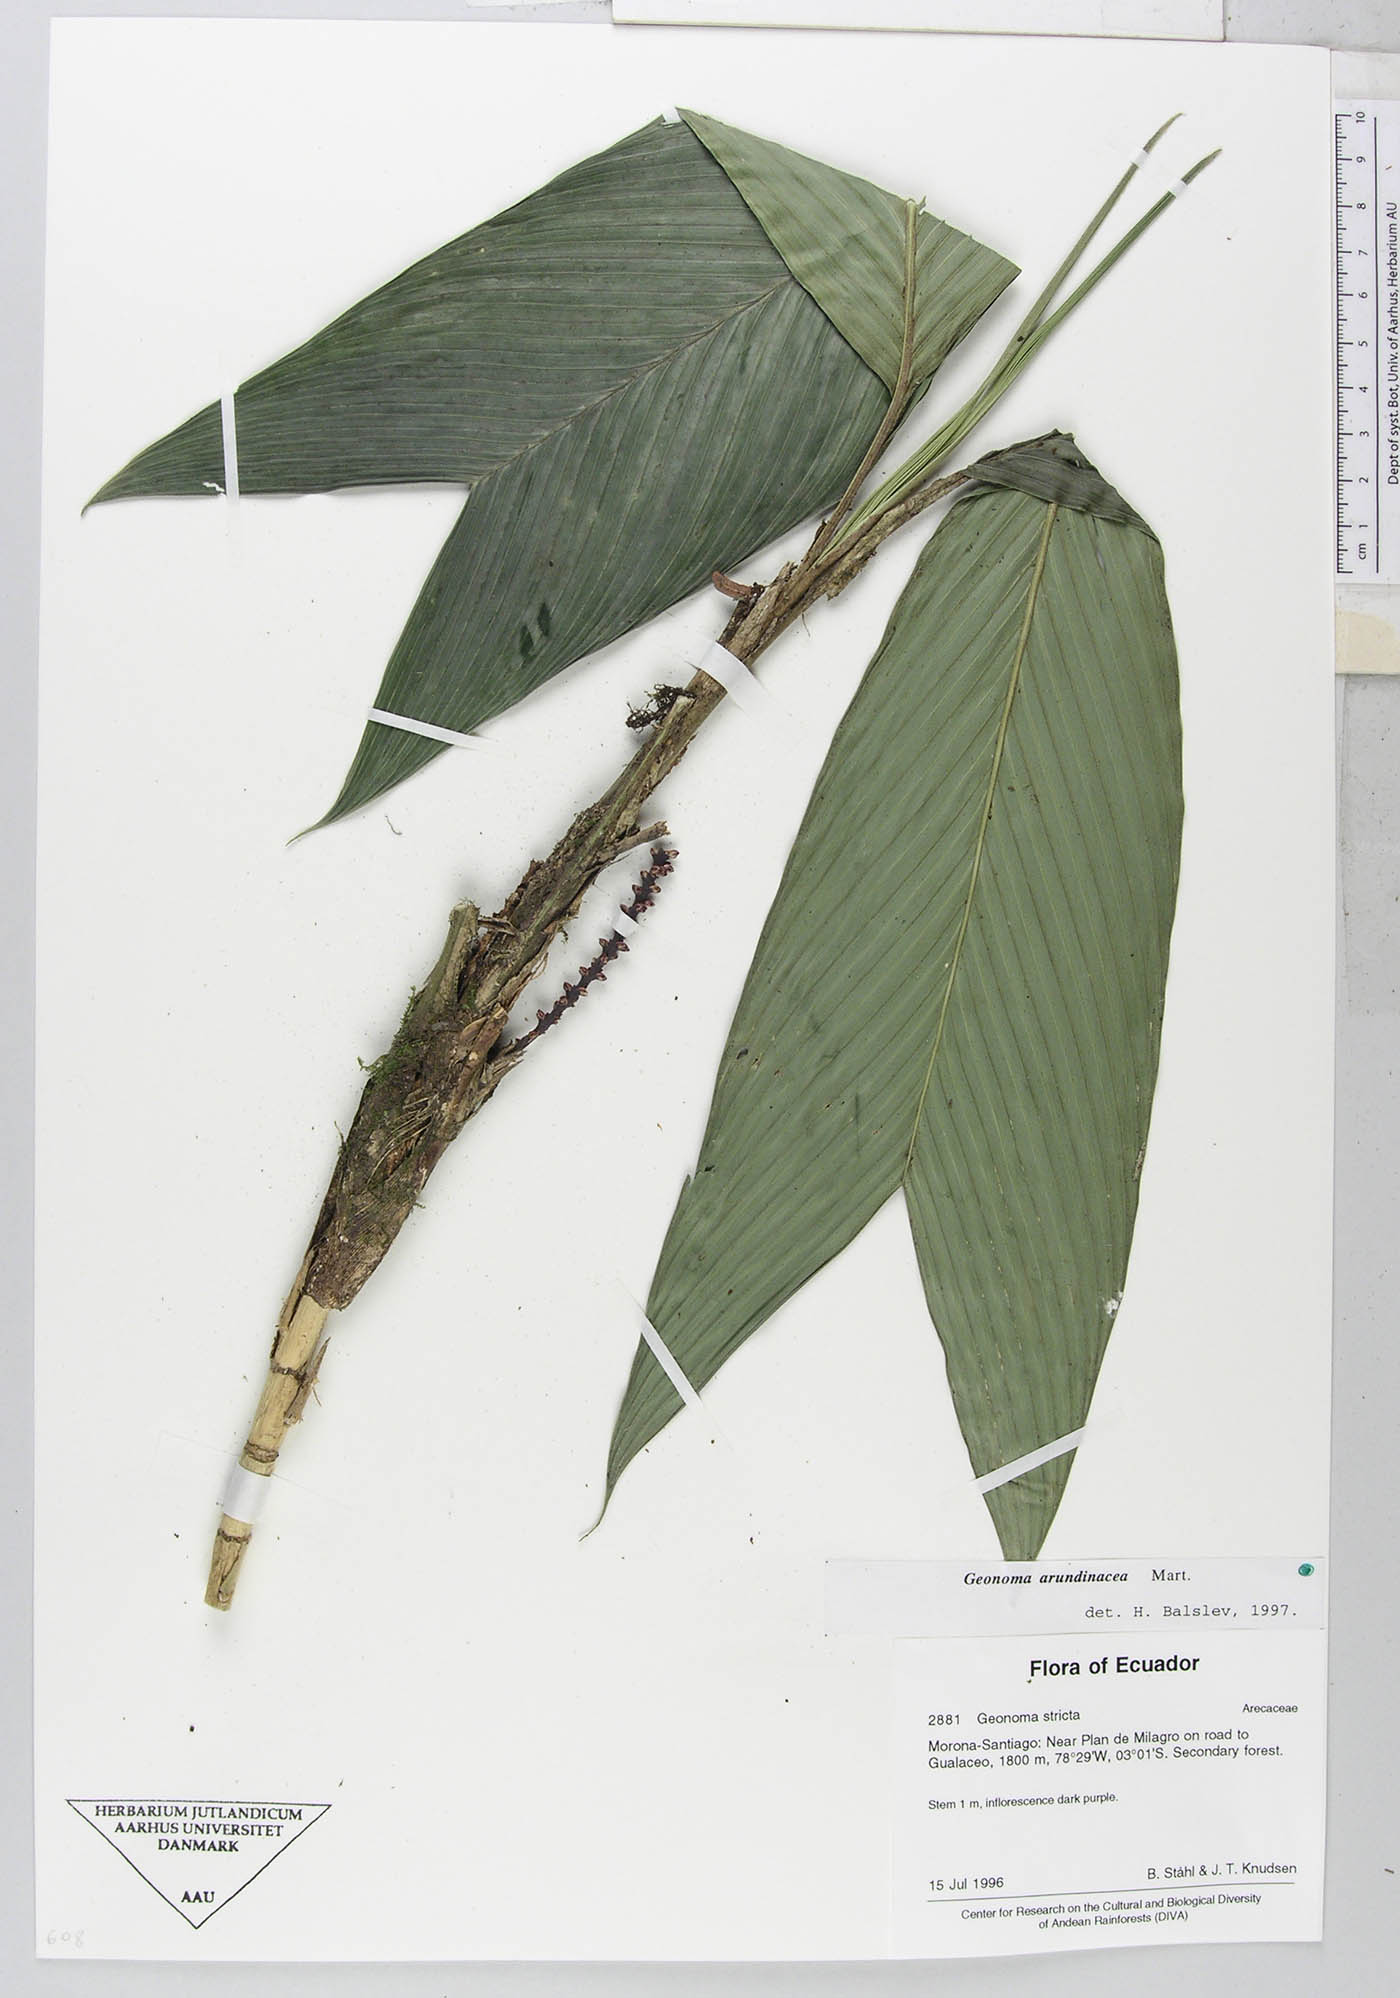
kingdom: Plantae
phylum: Tracheophyta
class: Liliopsida
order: Arecales
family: Arecaceae
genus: Geonoma
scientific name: Geonoma stricta
